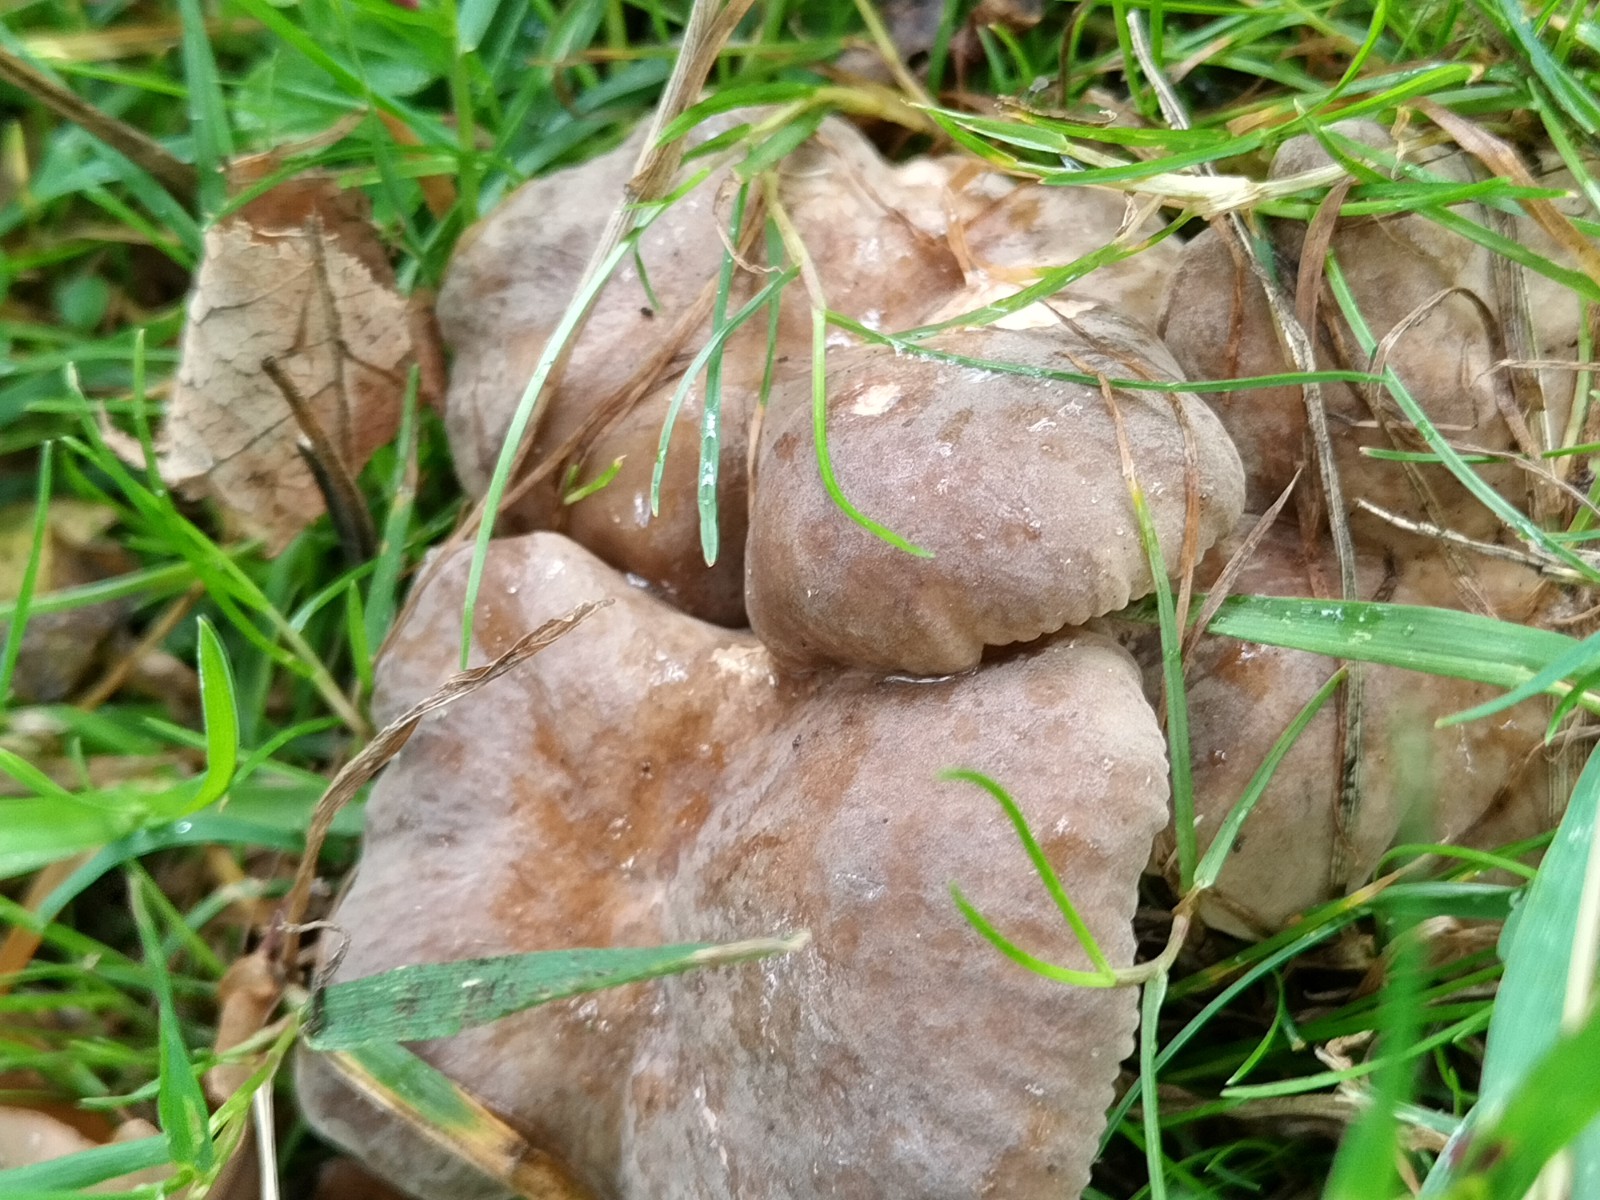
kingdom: Fungi
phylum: Basidiomycota
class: Agaricomycetes
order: Russulales
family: Russulaceae
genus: Lactarius
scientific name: Lactarius azonites
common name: røggrå mælkehat
